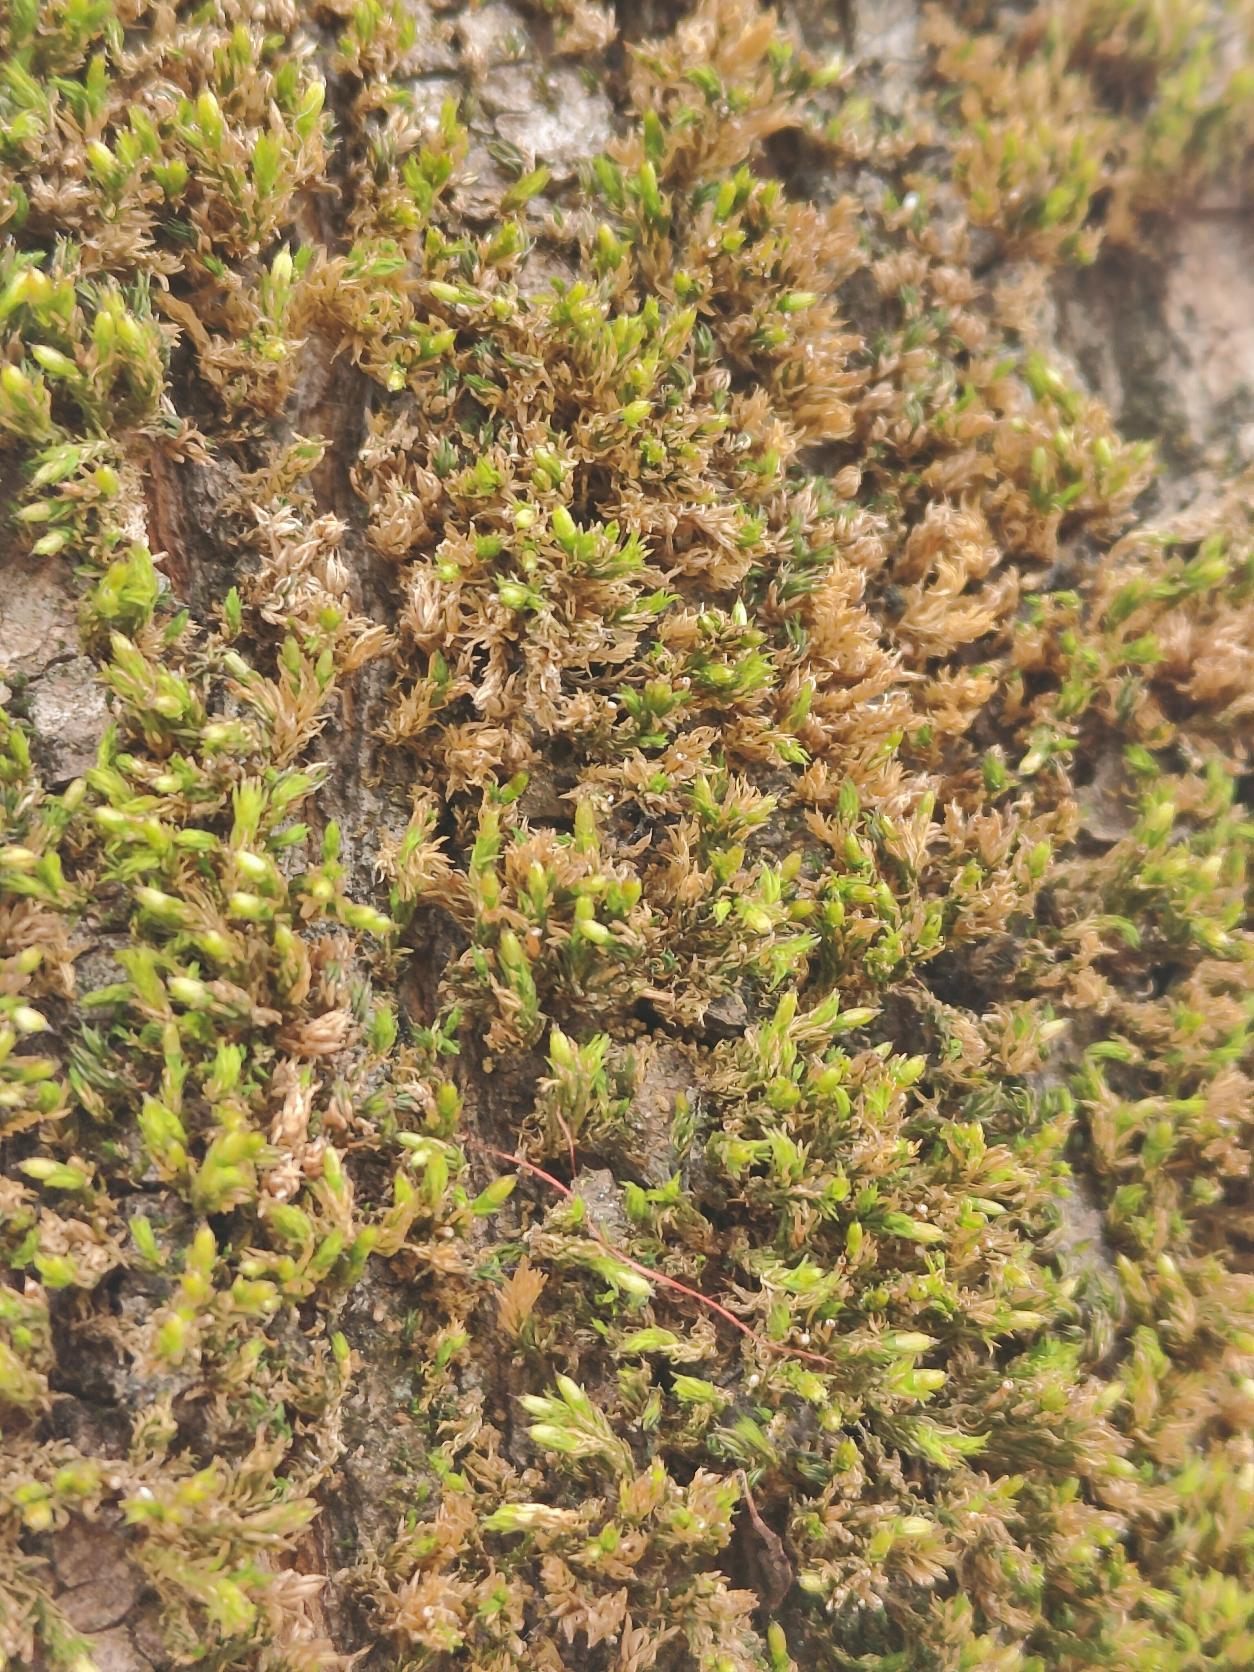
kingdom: Plantae
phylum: Bryophyta
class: Bryopsida
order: Orthotrichales
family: Orthotrichaceae
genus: Lewinskya
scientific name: Lewinskya affinis
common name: Almindelig furehætte
